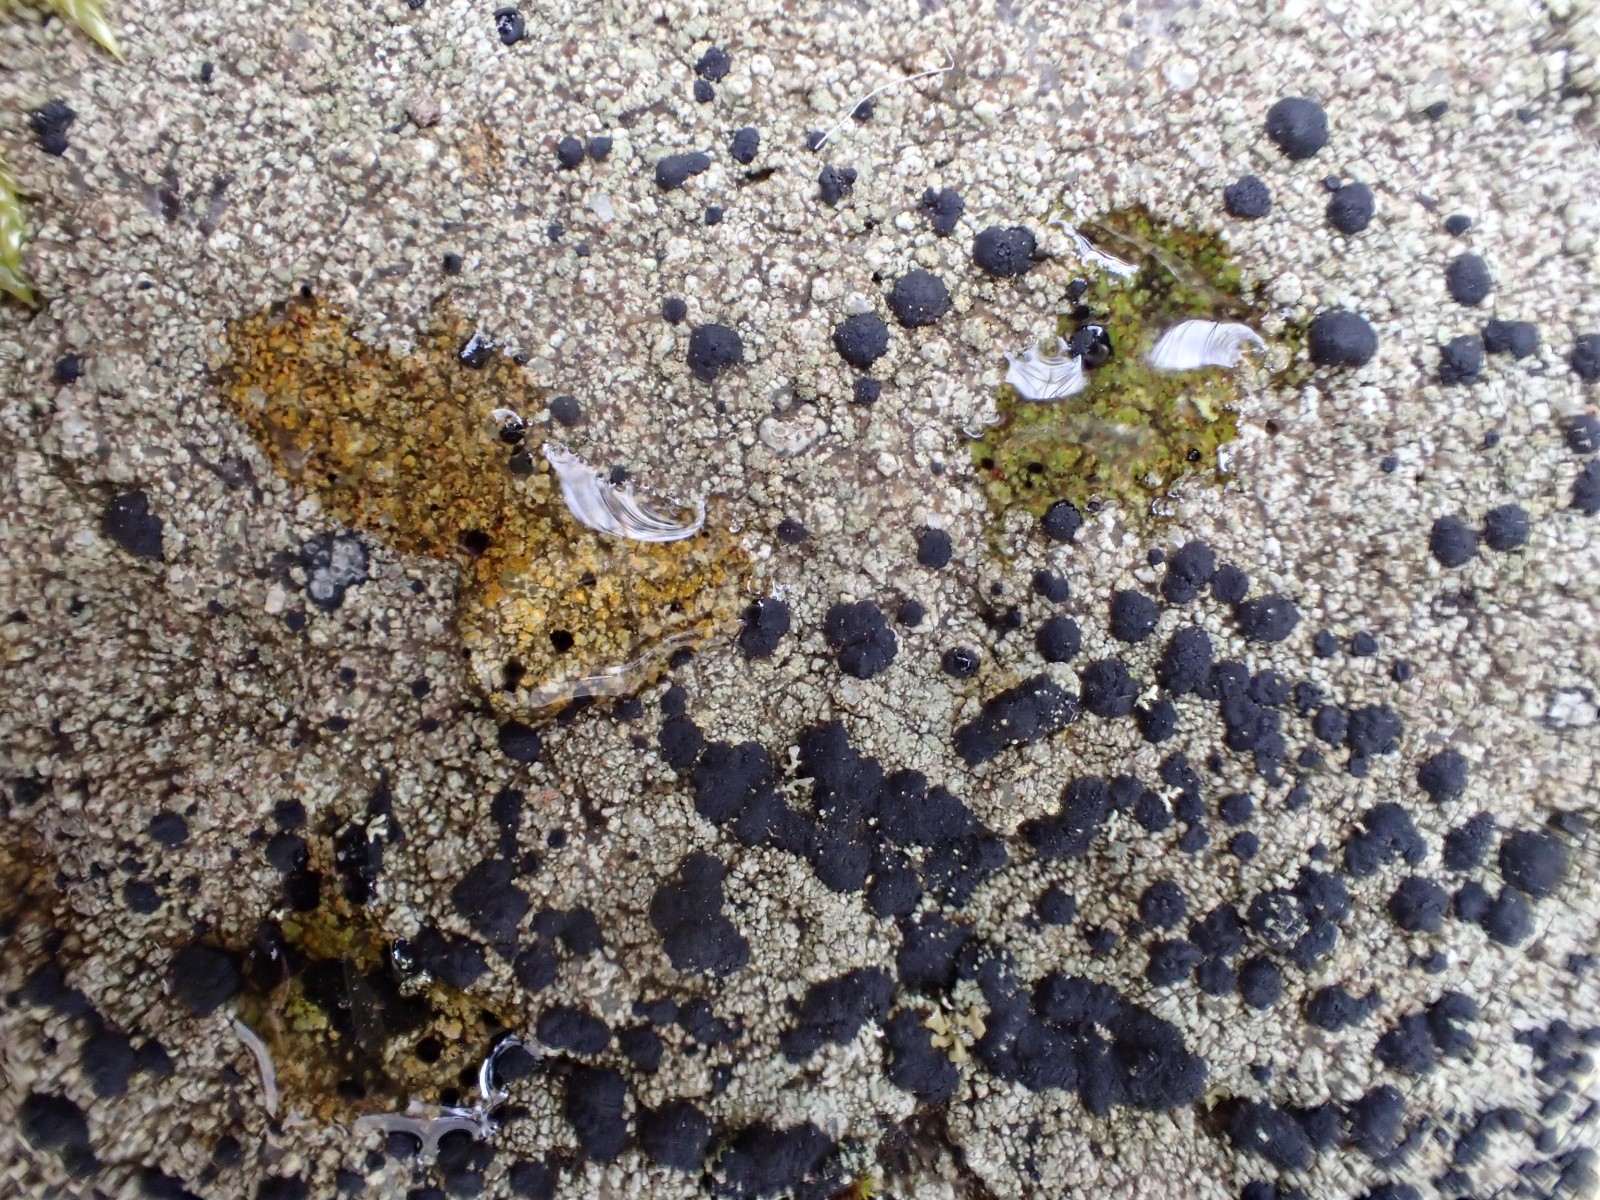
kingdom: Fungi
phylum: Ascomycota
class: Lecanoromycetes
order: Lecanorales
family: Lecanoraceae
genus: Lecidella
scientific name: Lecidella scabra
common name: skurvet skivelav
